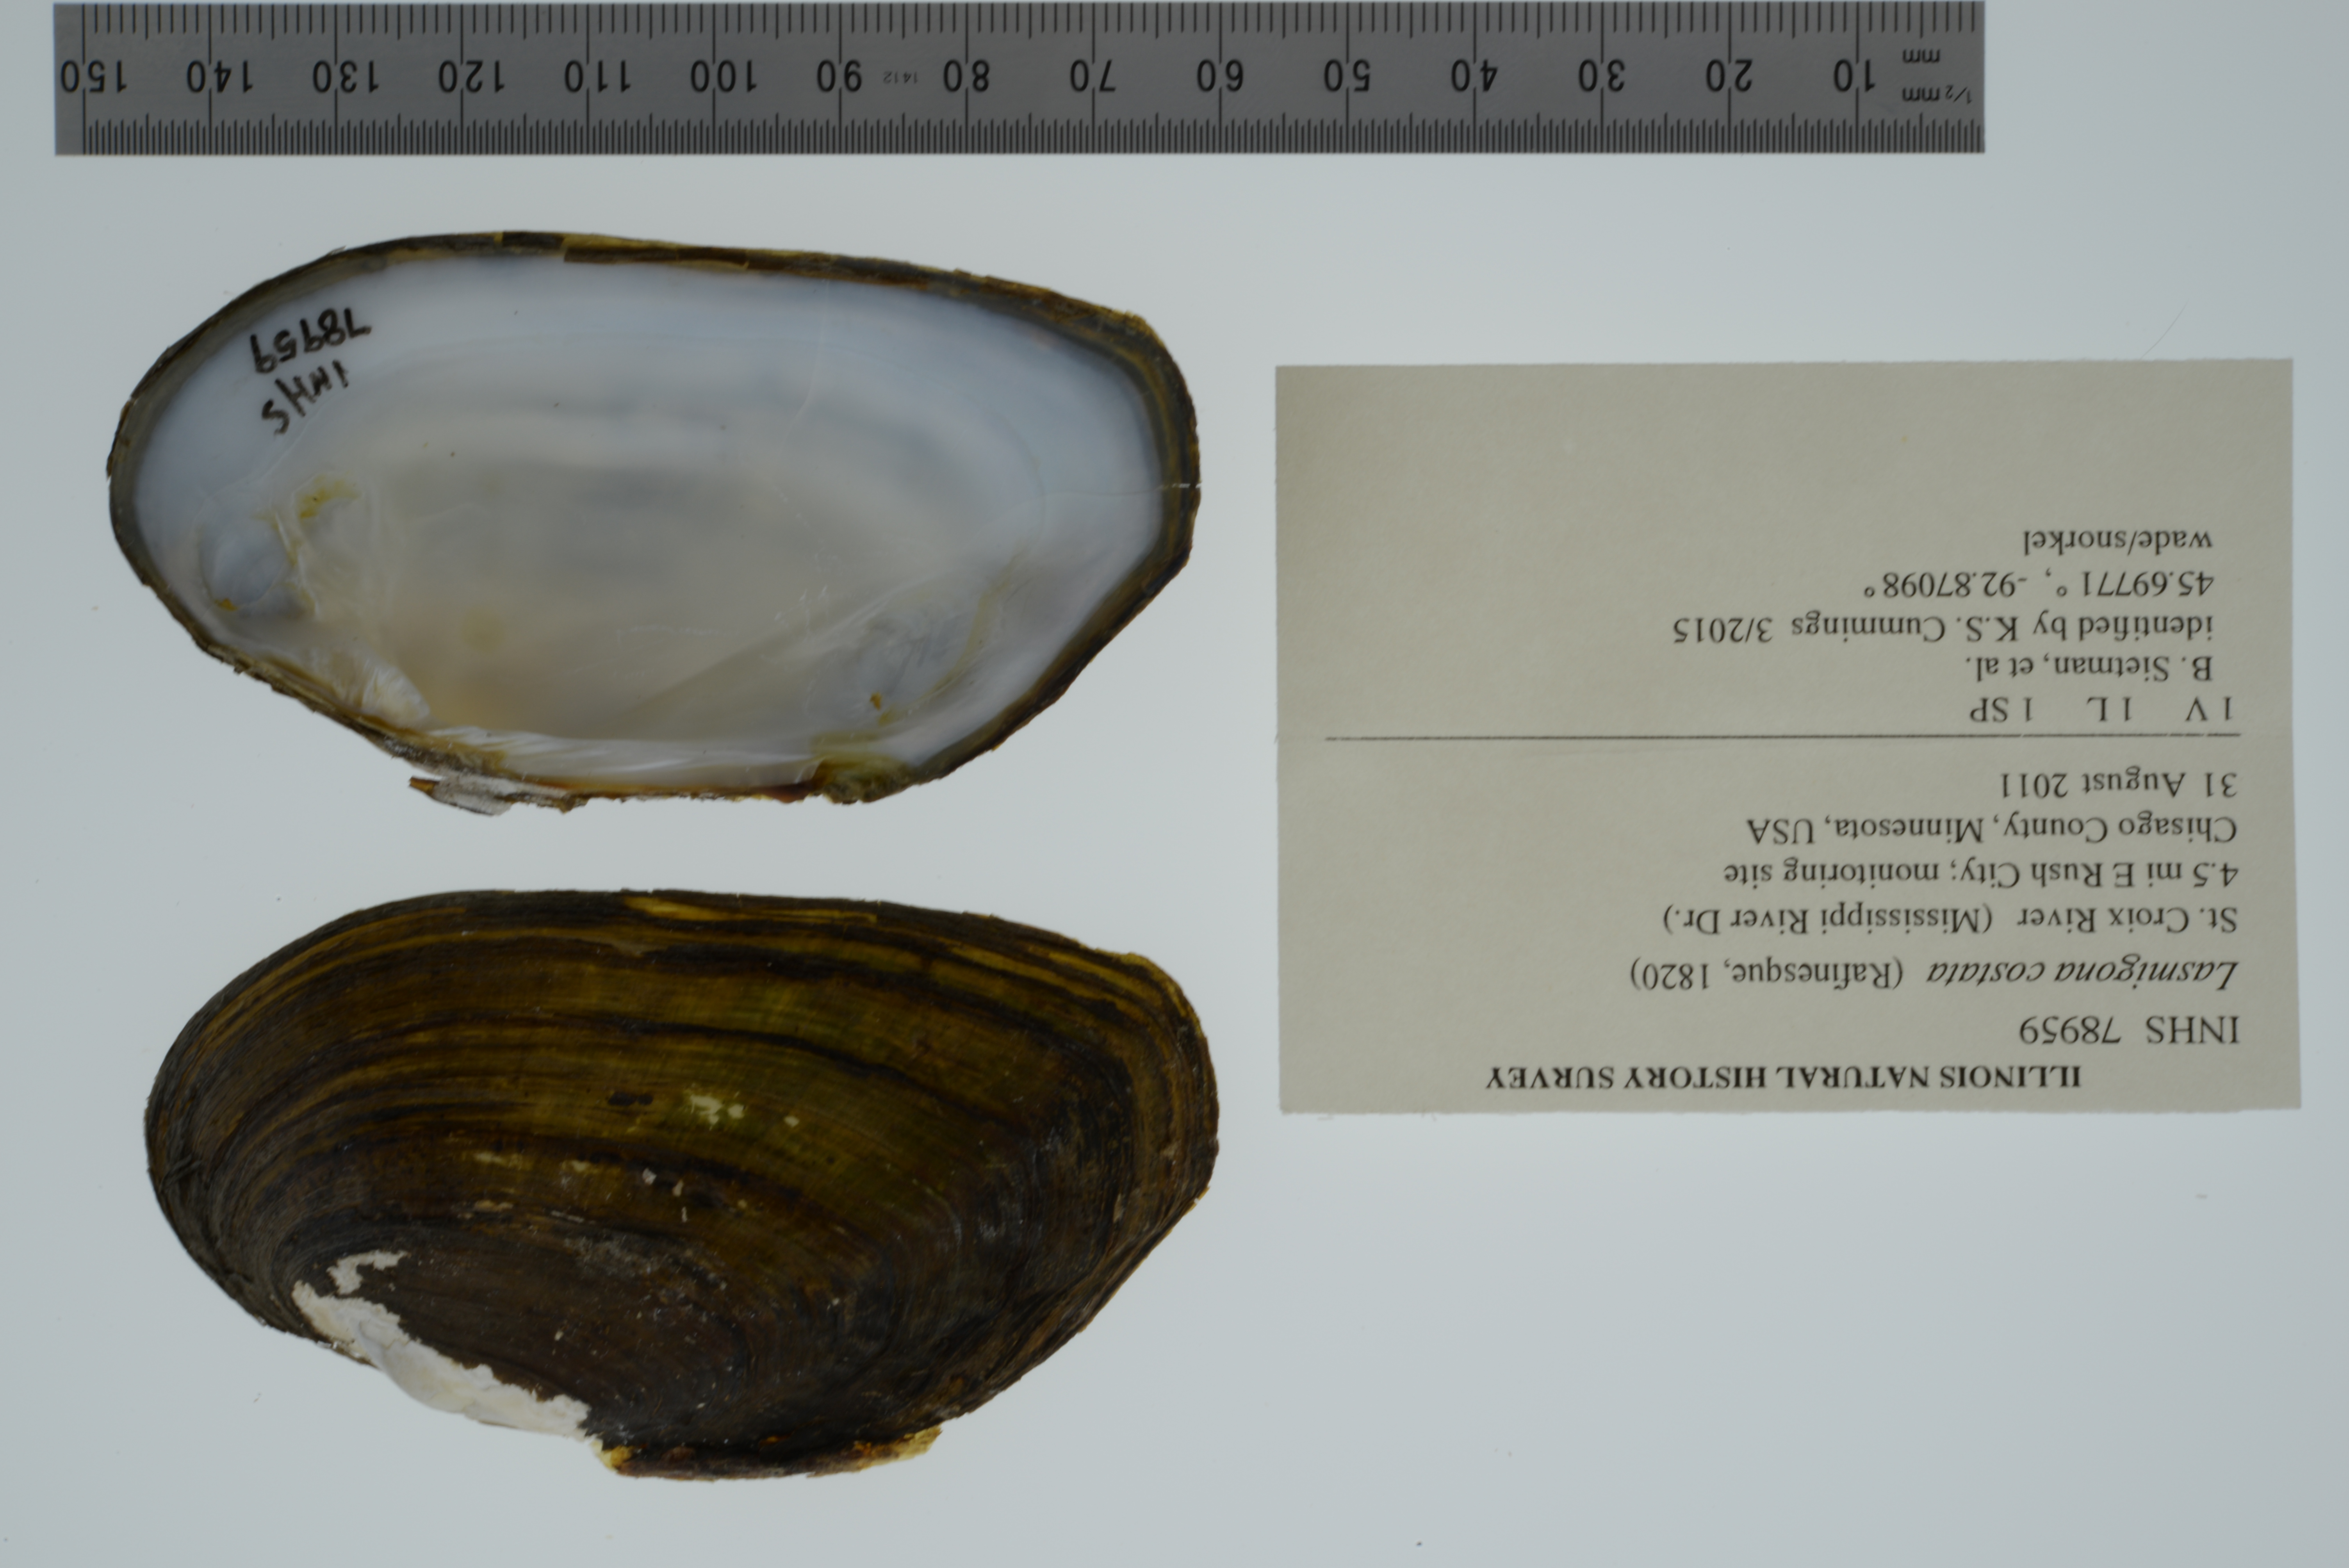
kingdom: Animalia
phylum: Mollusca
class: Bivalvia
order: Unionida
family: Unionidae
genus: Lasmigona
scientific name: Lasmigona costata
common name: Flutedshell
